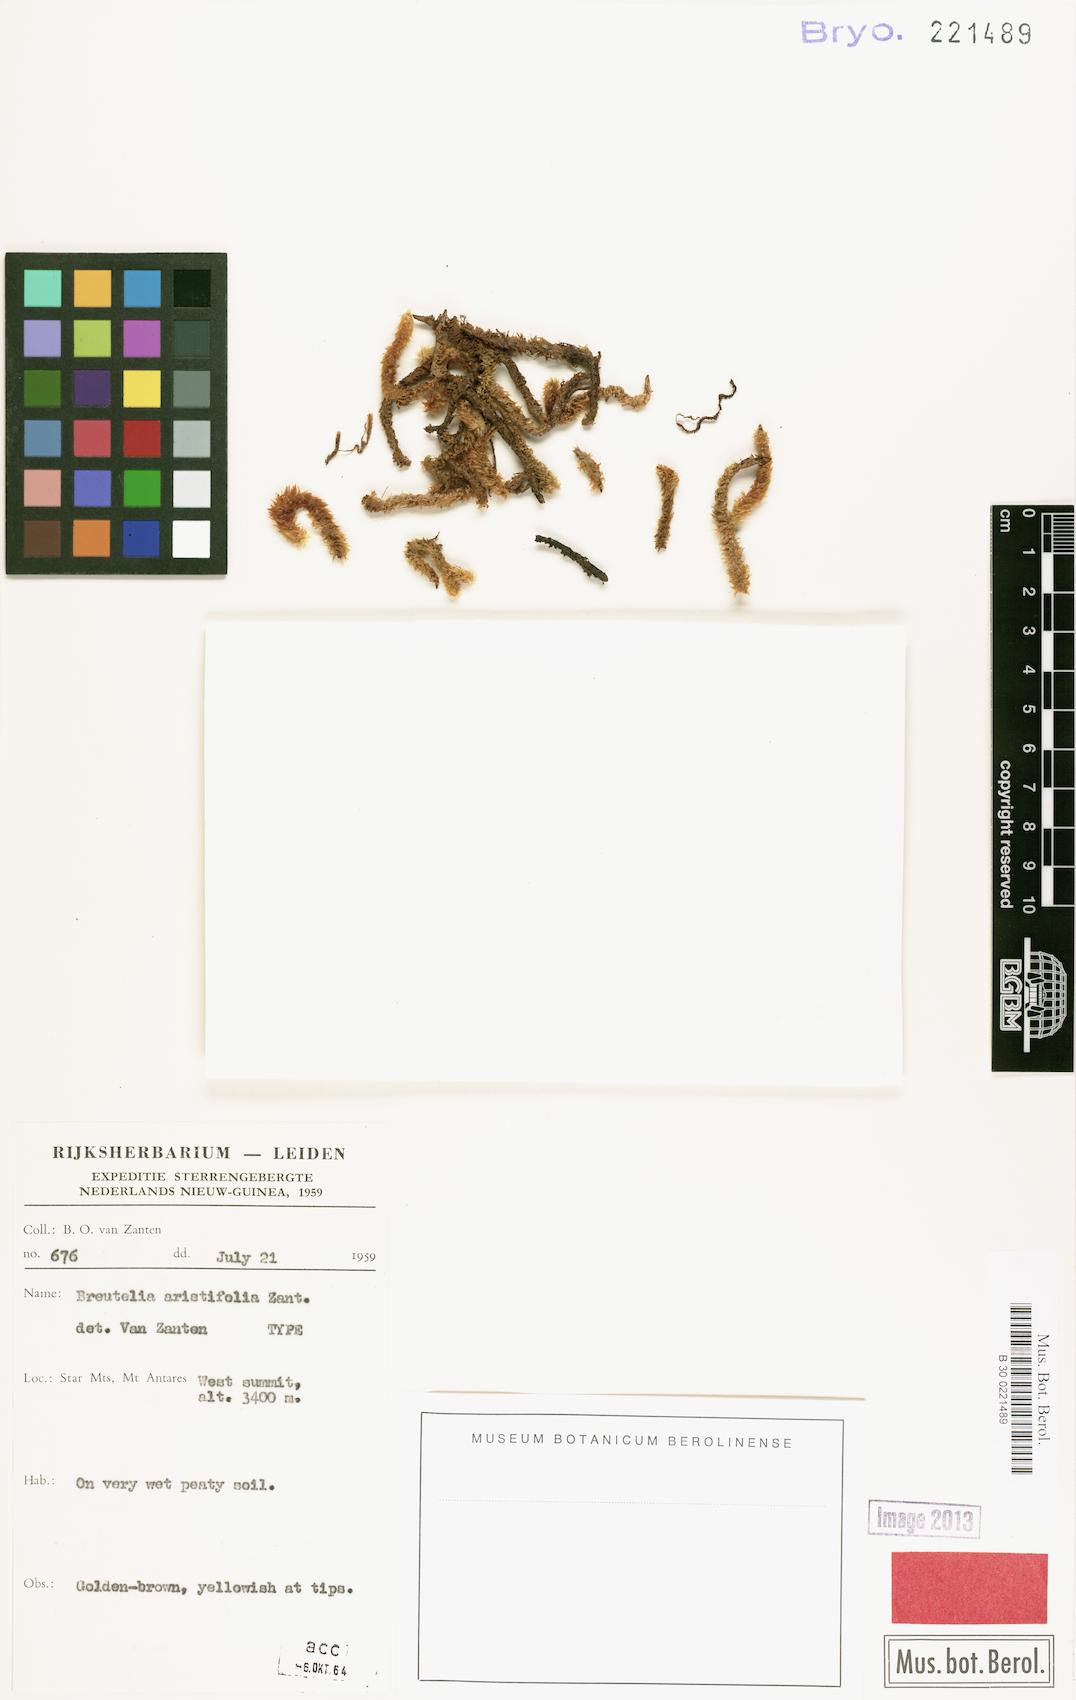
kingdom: Plantae
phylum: Bryophyta
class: Bryopsida
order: Bartramiales
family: Bartramiaceae
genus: Breutelia
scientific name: Breutelia aristifolia
